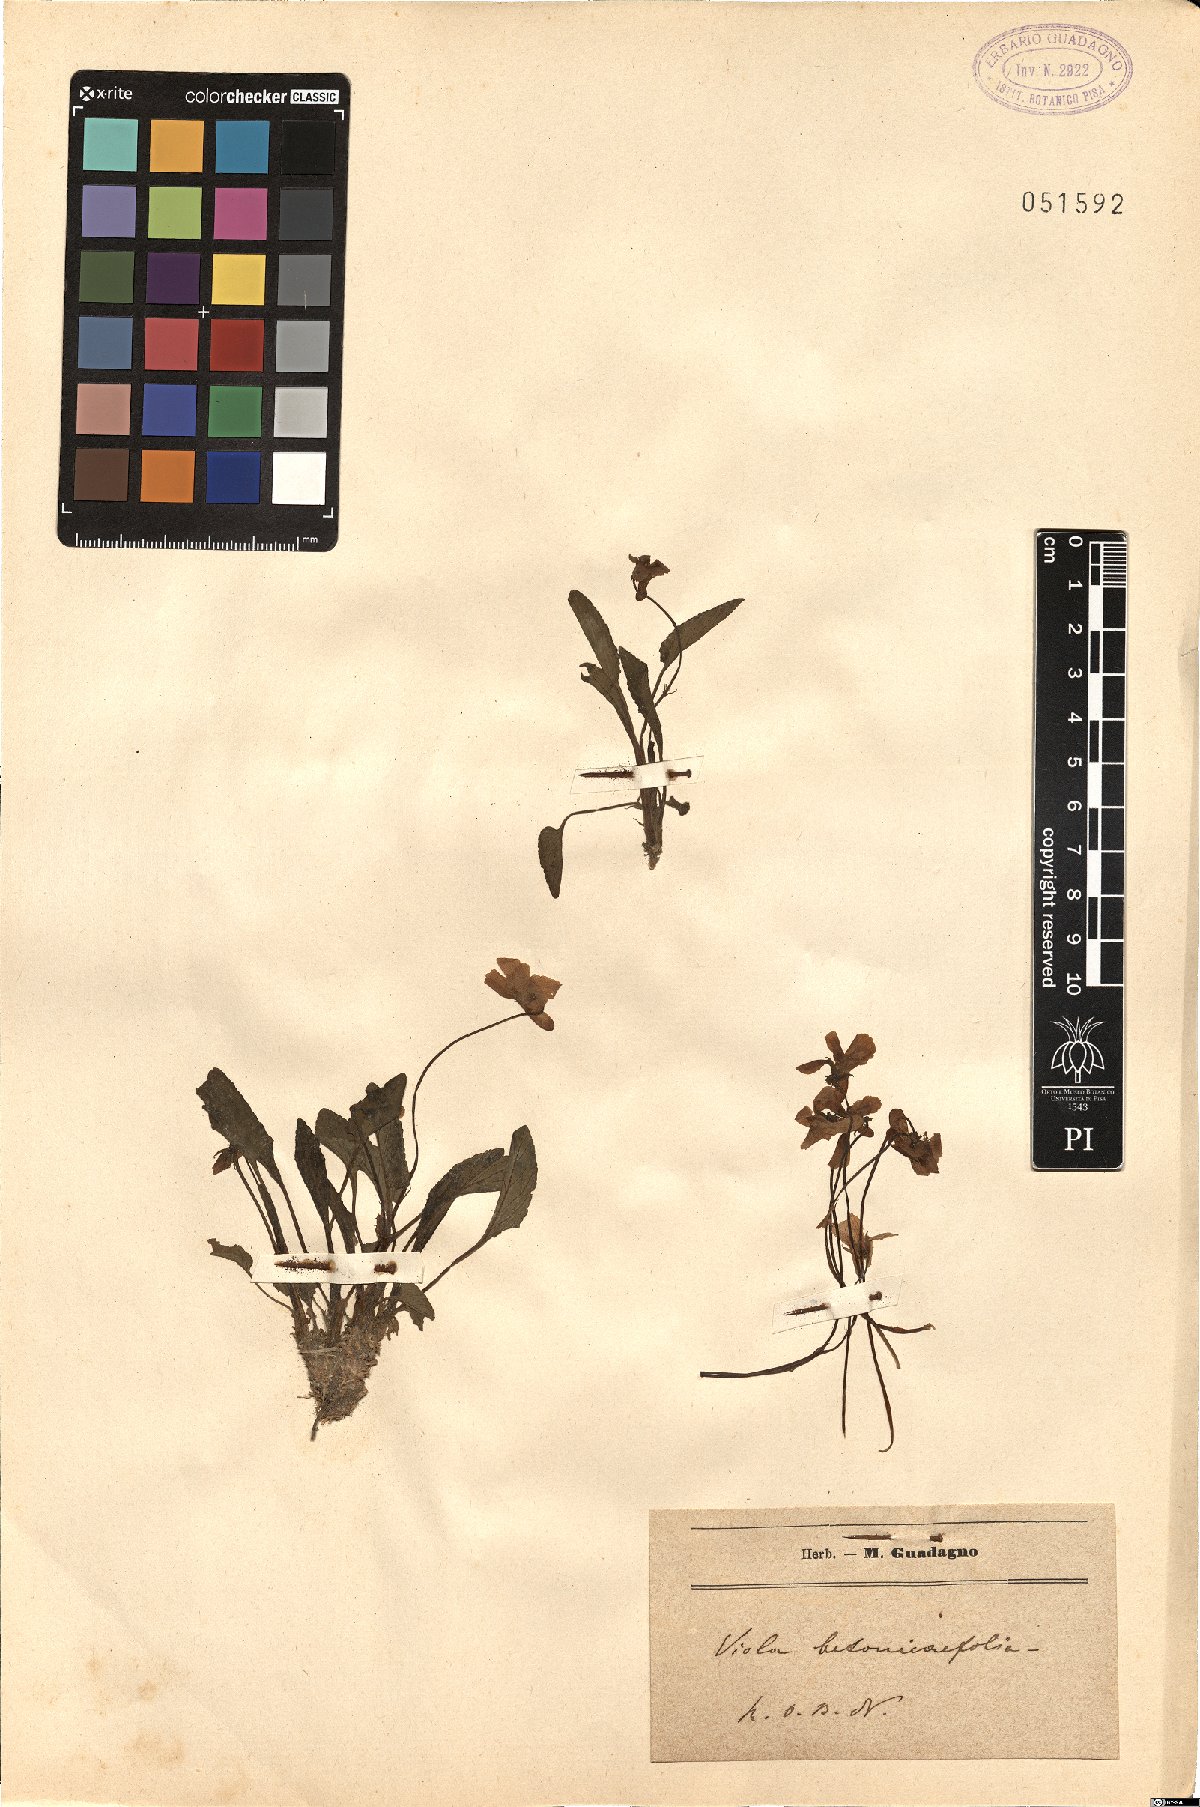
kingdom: Plantae
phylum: Tracheophyta
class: Magnoliopsida
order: Malpighiales
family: Violaceae
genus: Viola
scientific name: Viola betonicifolia
